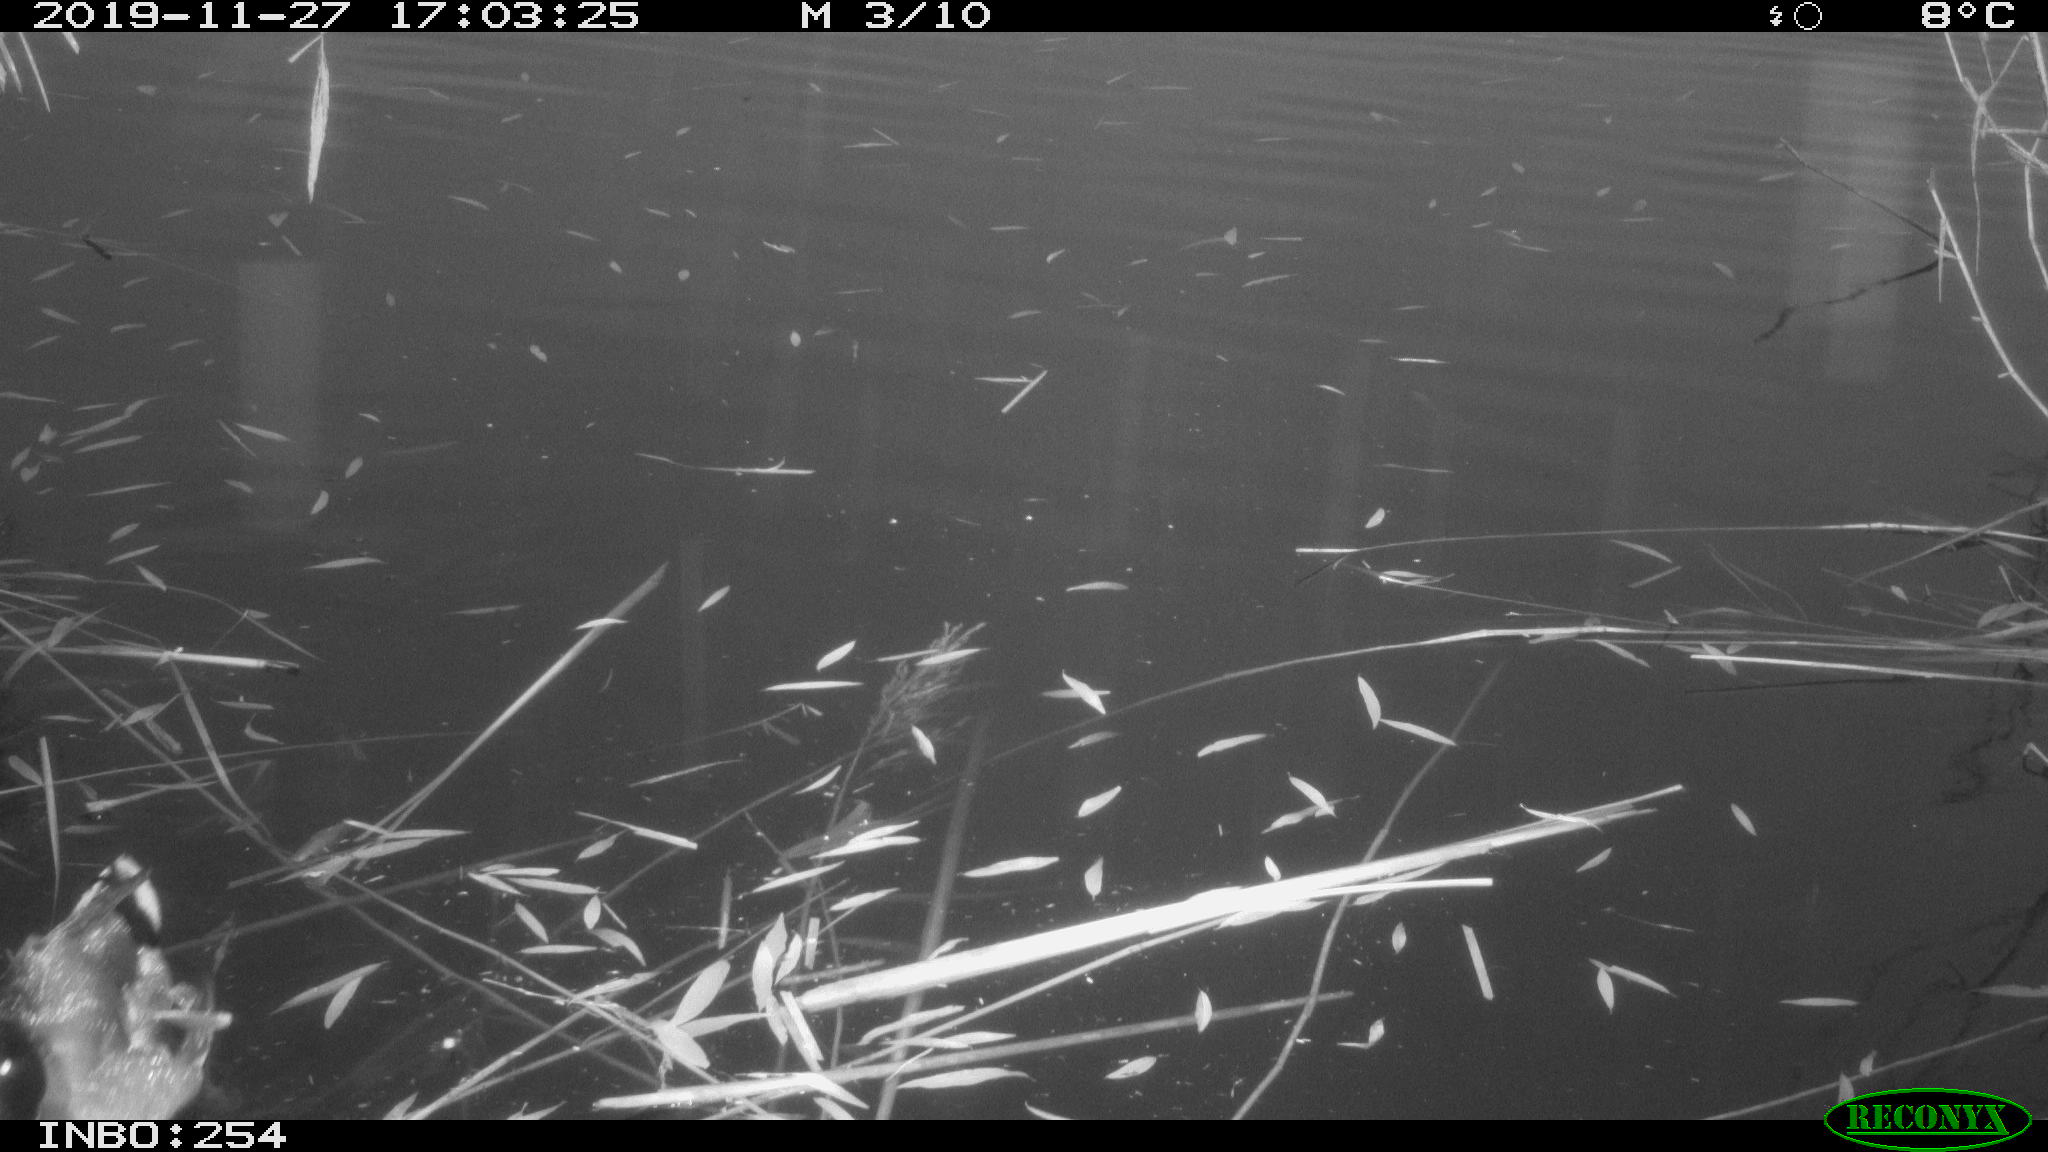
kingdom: Animalia
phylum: Chordata
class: Aves
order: Anseriformes
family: Anatidae
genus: Anas
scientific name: Anas platyrhynchos
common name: Mallard
